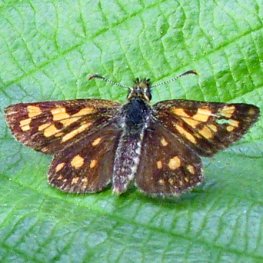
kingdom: Animalia
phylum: Arthropoda
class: Insecta
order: Lepidoptera
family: Hesperiidae
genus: Carterocephalus
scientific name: Carterocephalus palaemon
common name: Chequered Skipper
